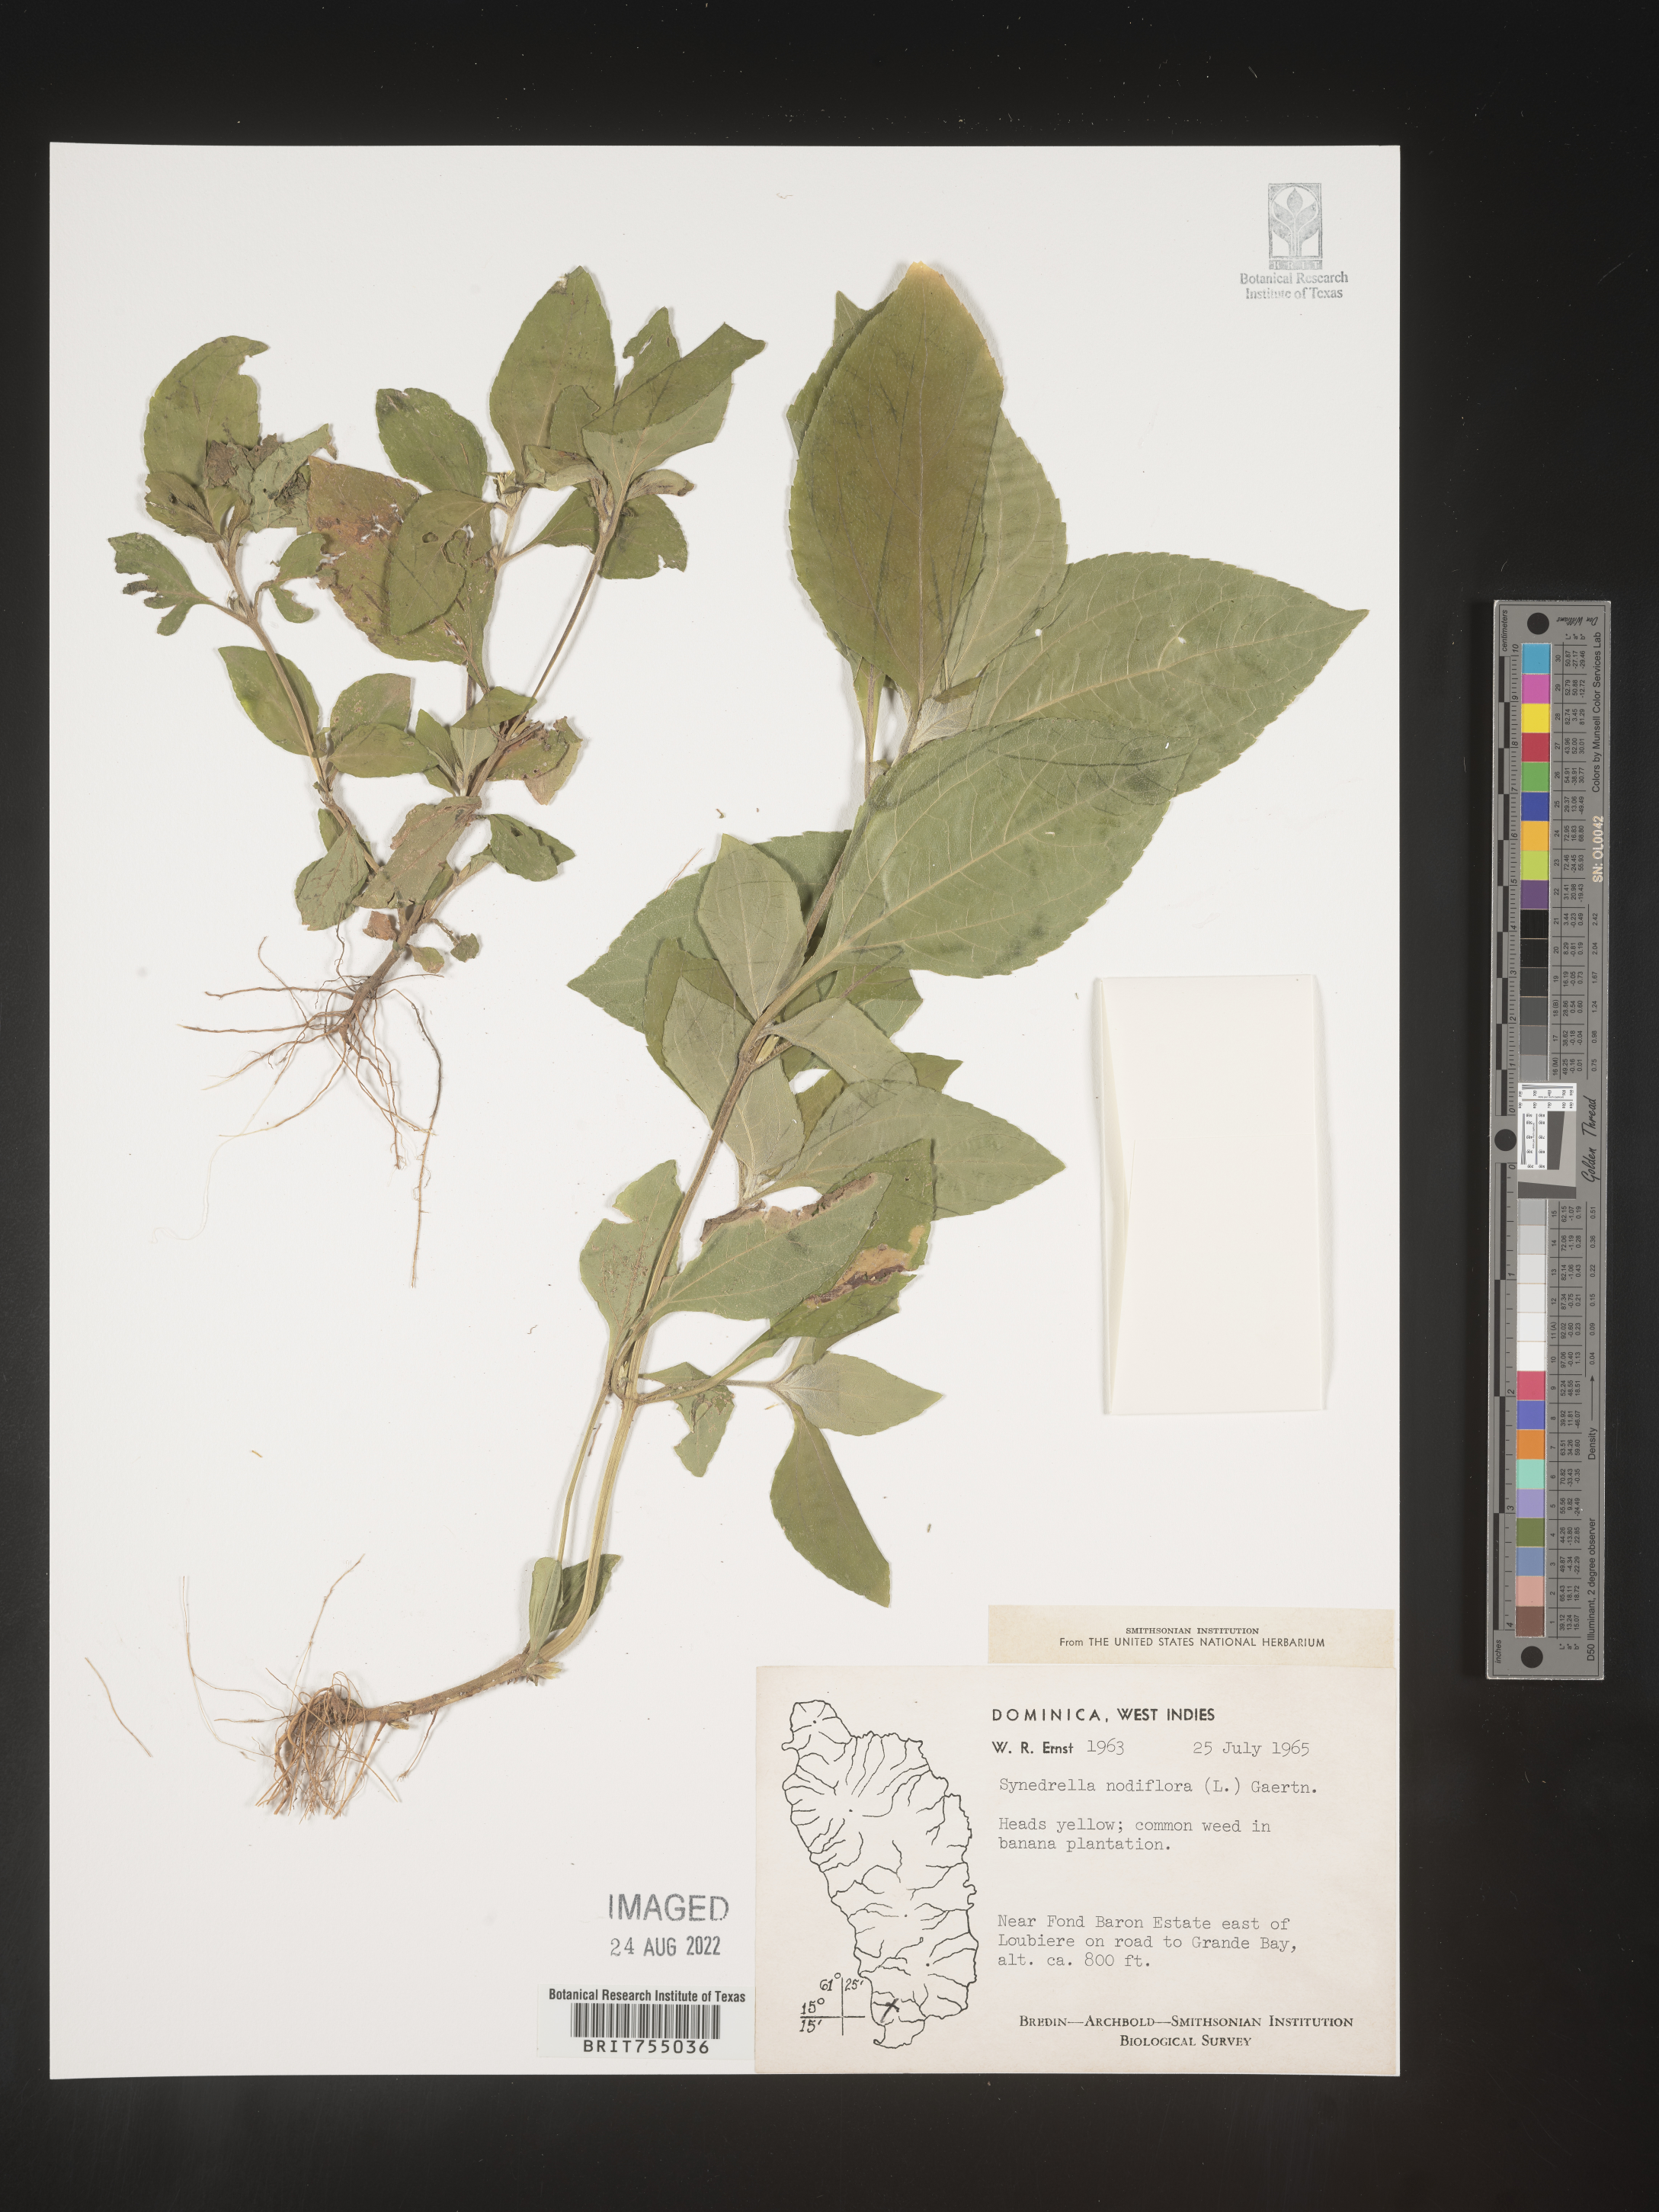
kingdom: Plantae
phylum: Tracheophyta
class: Magnoliopsida
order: Asterales
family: Asteraceae
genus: Symphyotrichum
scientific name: Symphyotrichum
